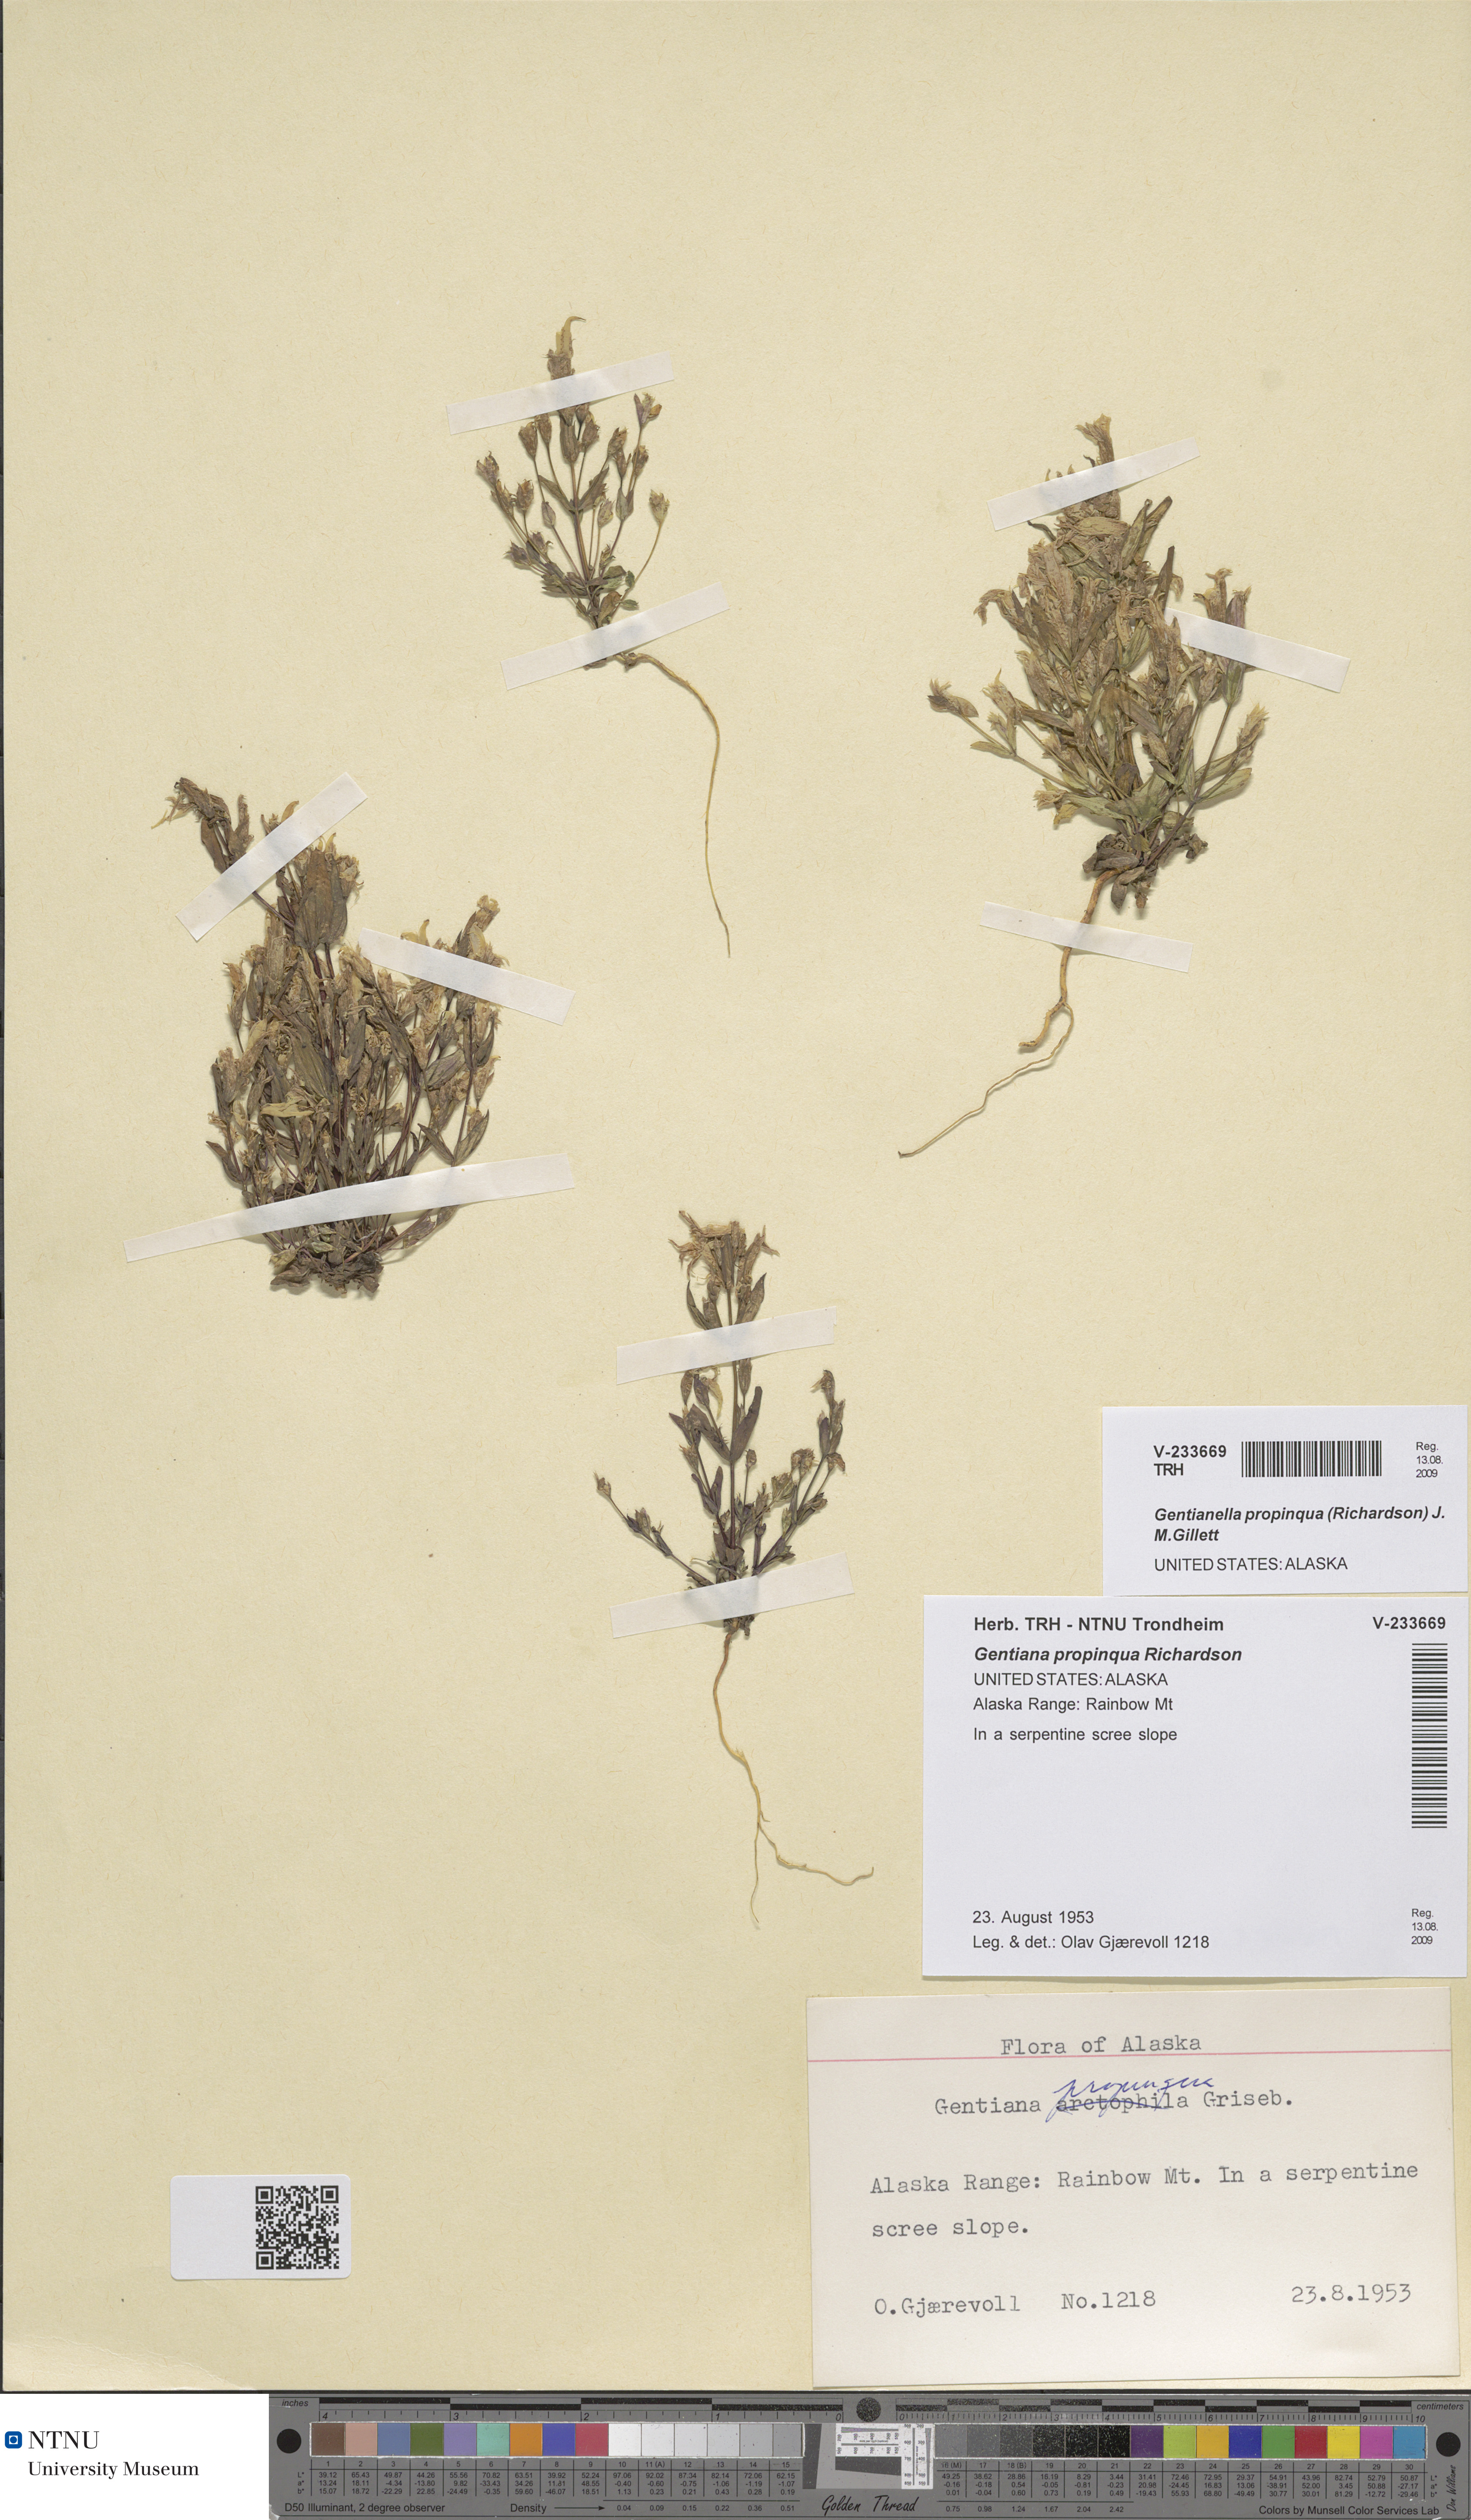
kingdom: Plantae
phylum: Tracheophyta
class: Magnoliopsida
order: Gentianales
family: Gentianaceae
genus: Gentianella
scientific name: Gentianella propinqua
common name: Four-parted dwarf-gentian
